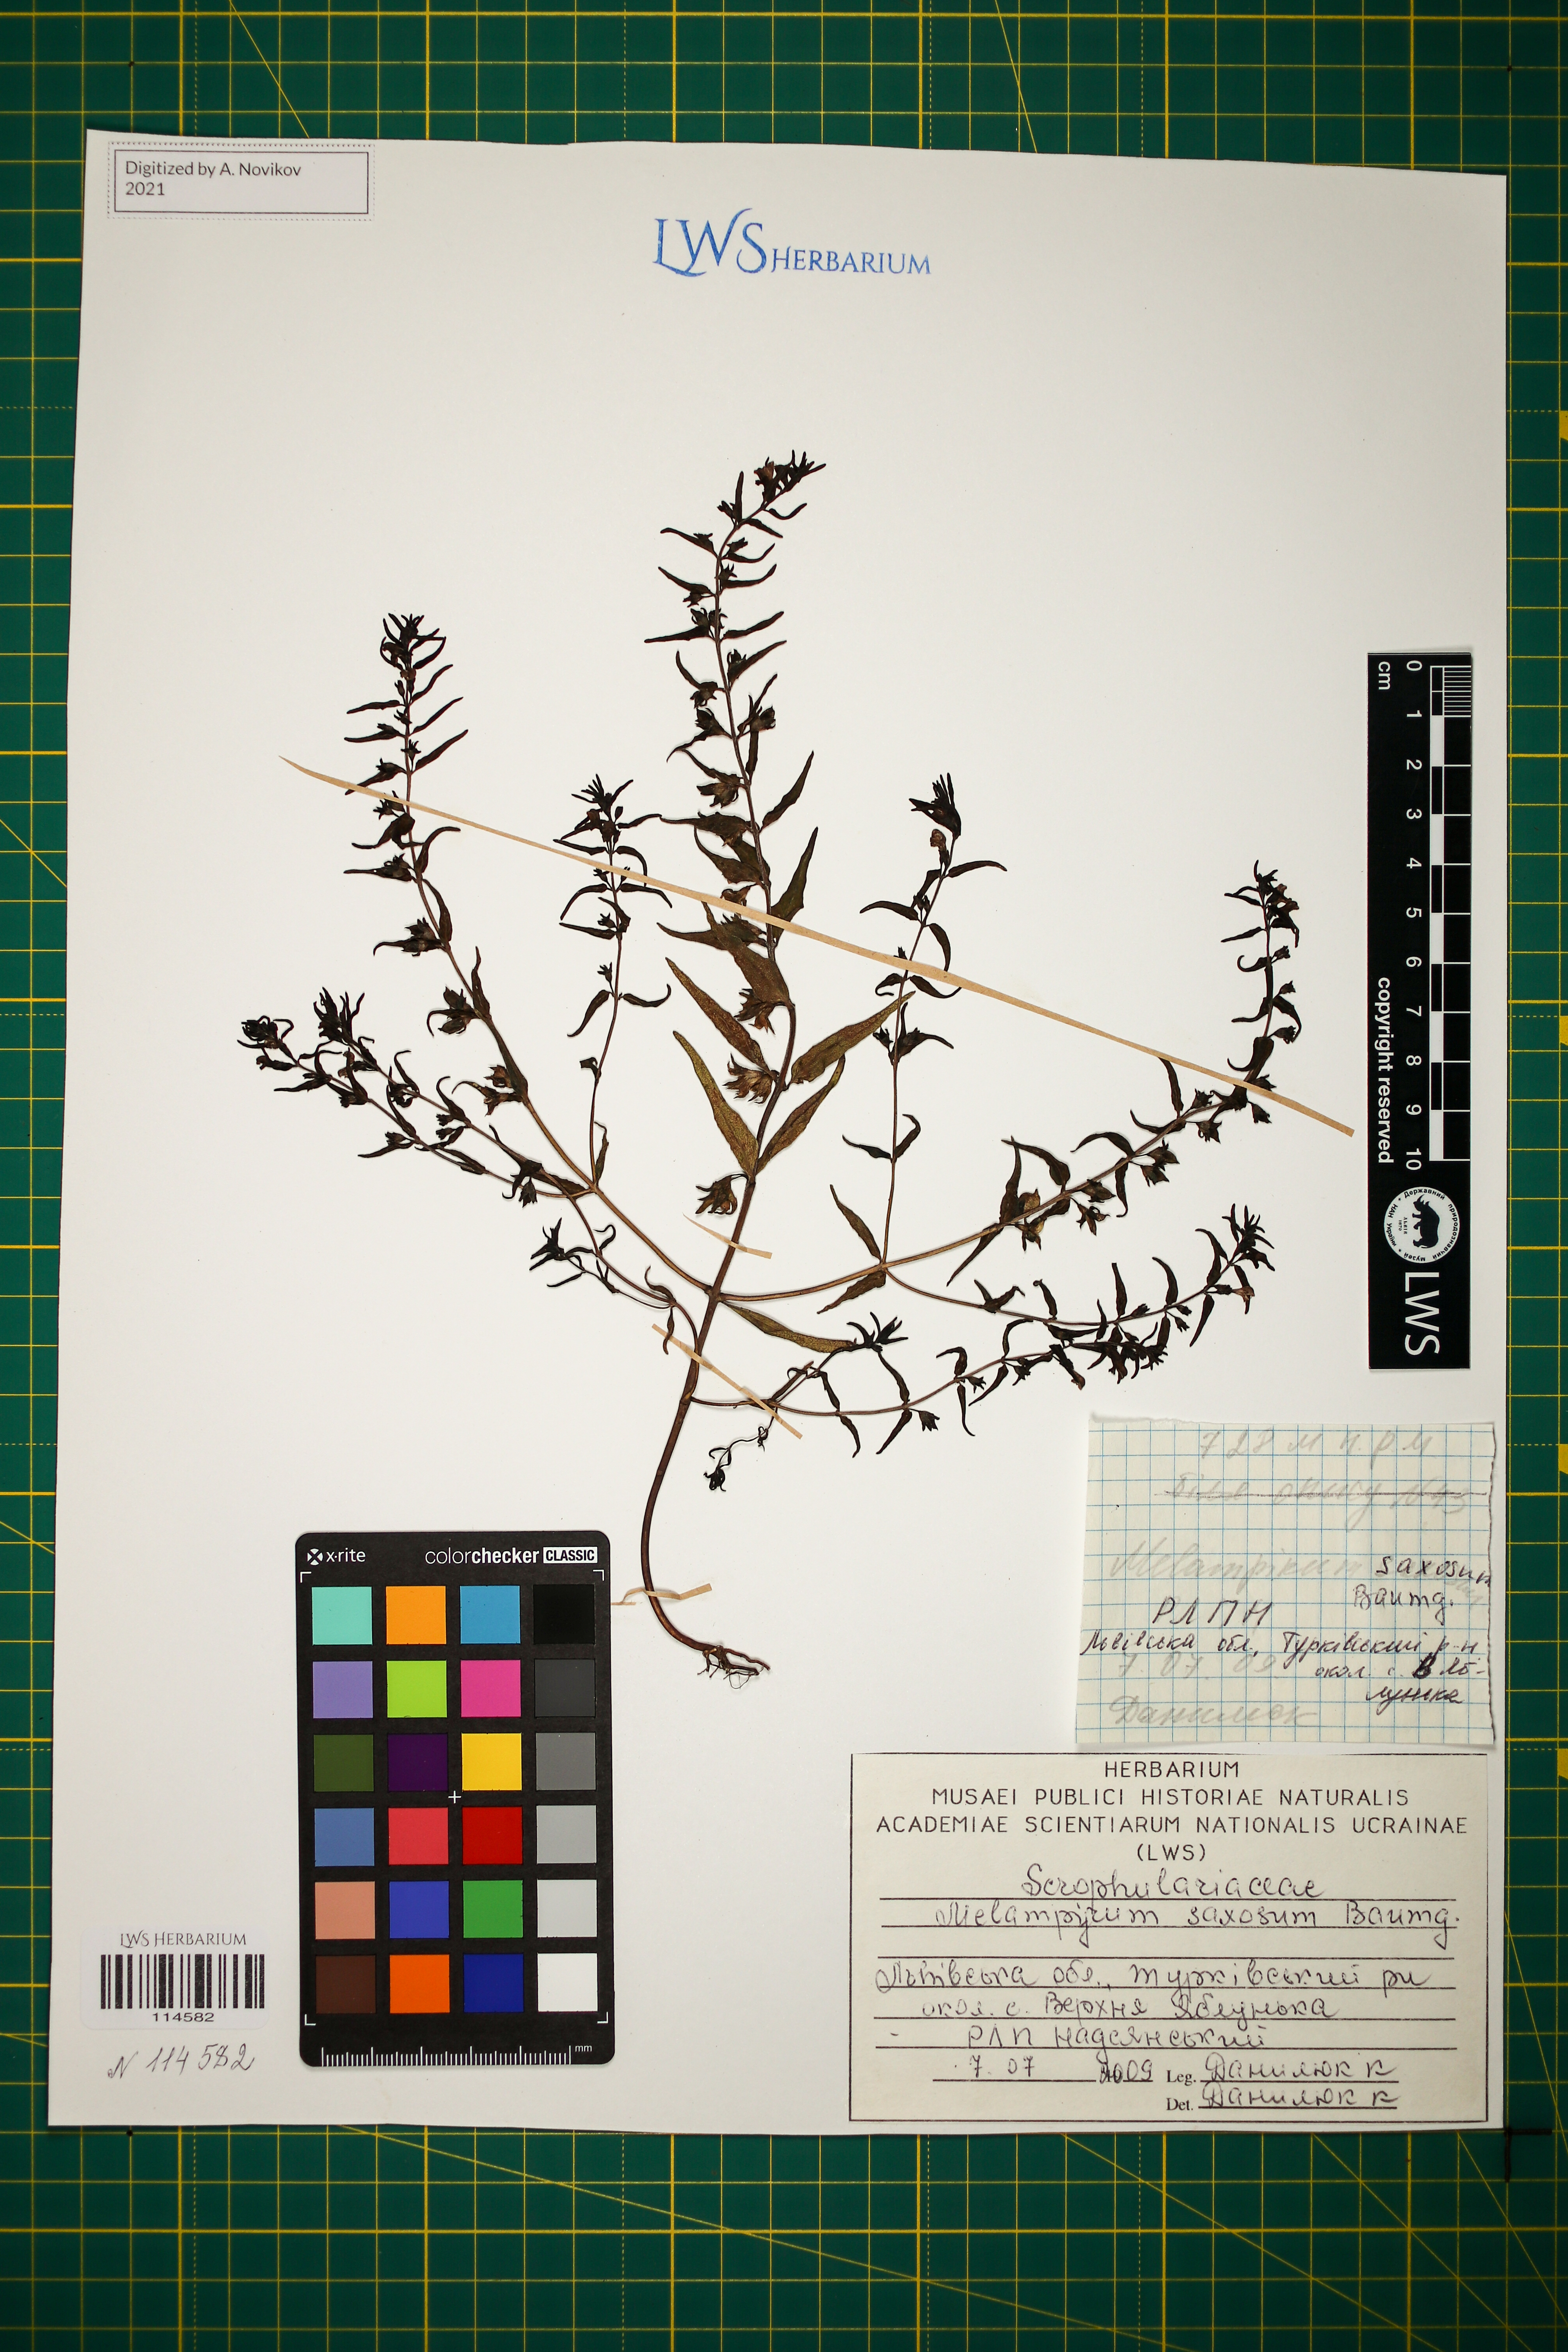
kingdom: Plantae
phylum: Tracheophyta
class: Magnoliopsida
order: Lamiales
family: Orobanchaceae
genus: Melampyrum
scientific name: Melampyrum saxosum
